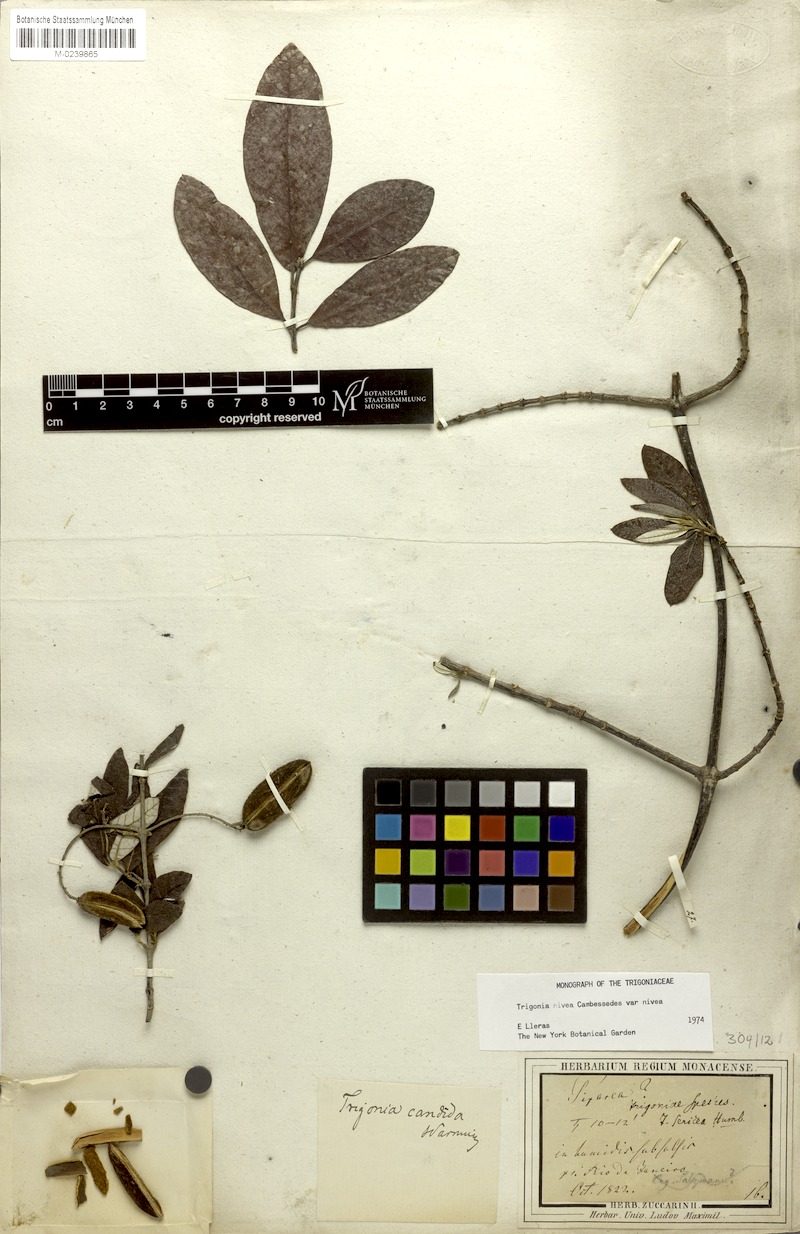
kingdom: Plantae
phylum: Tracheophyta
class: Magnoliopsida
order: Malpighiales
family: Trigoniaceae
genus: Trigonia
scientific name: Trigonia nivea
